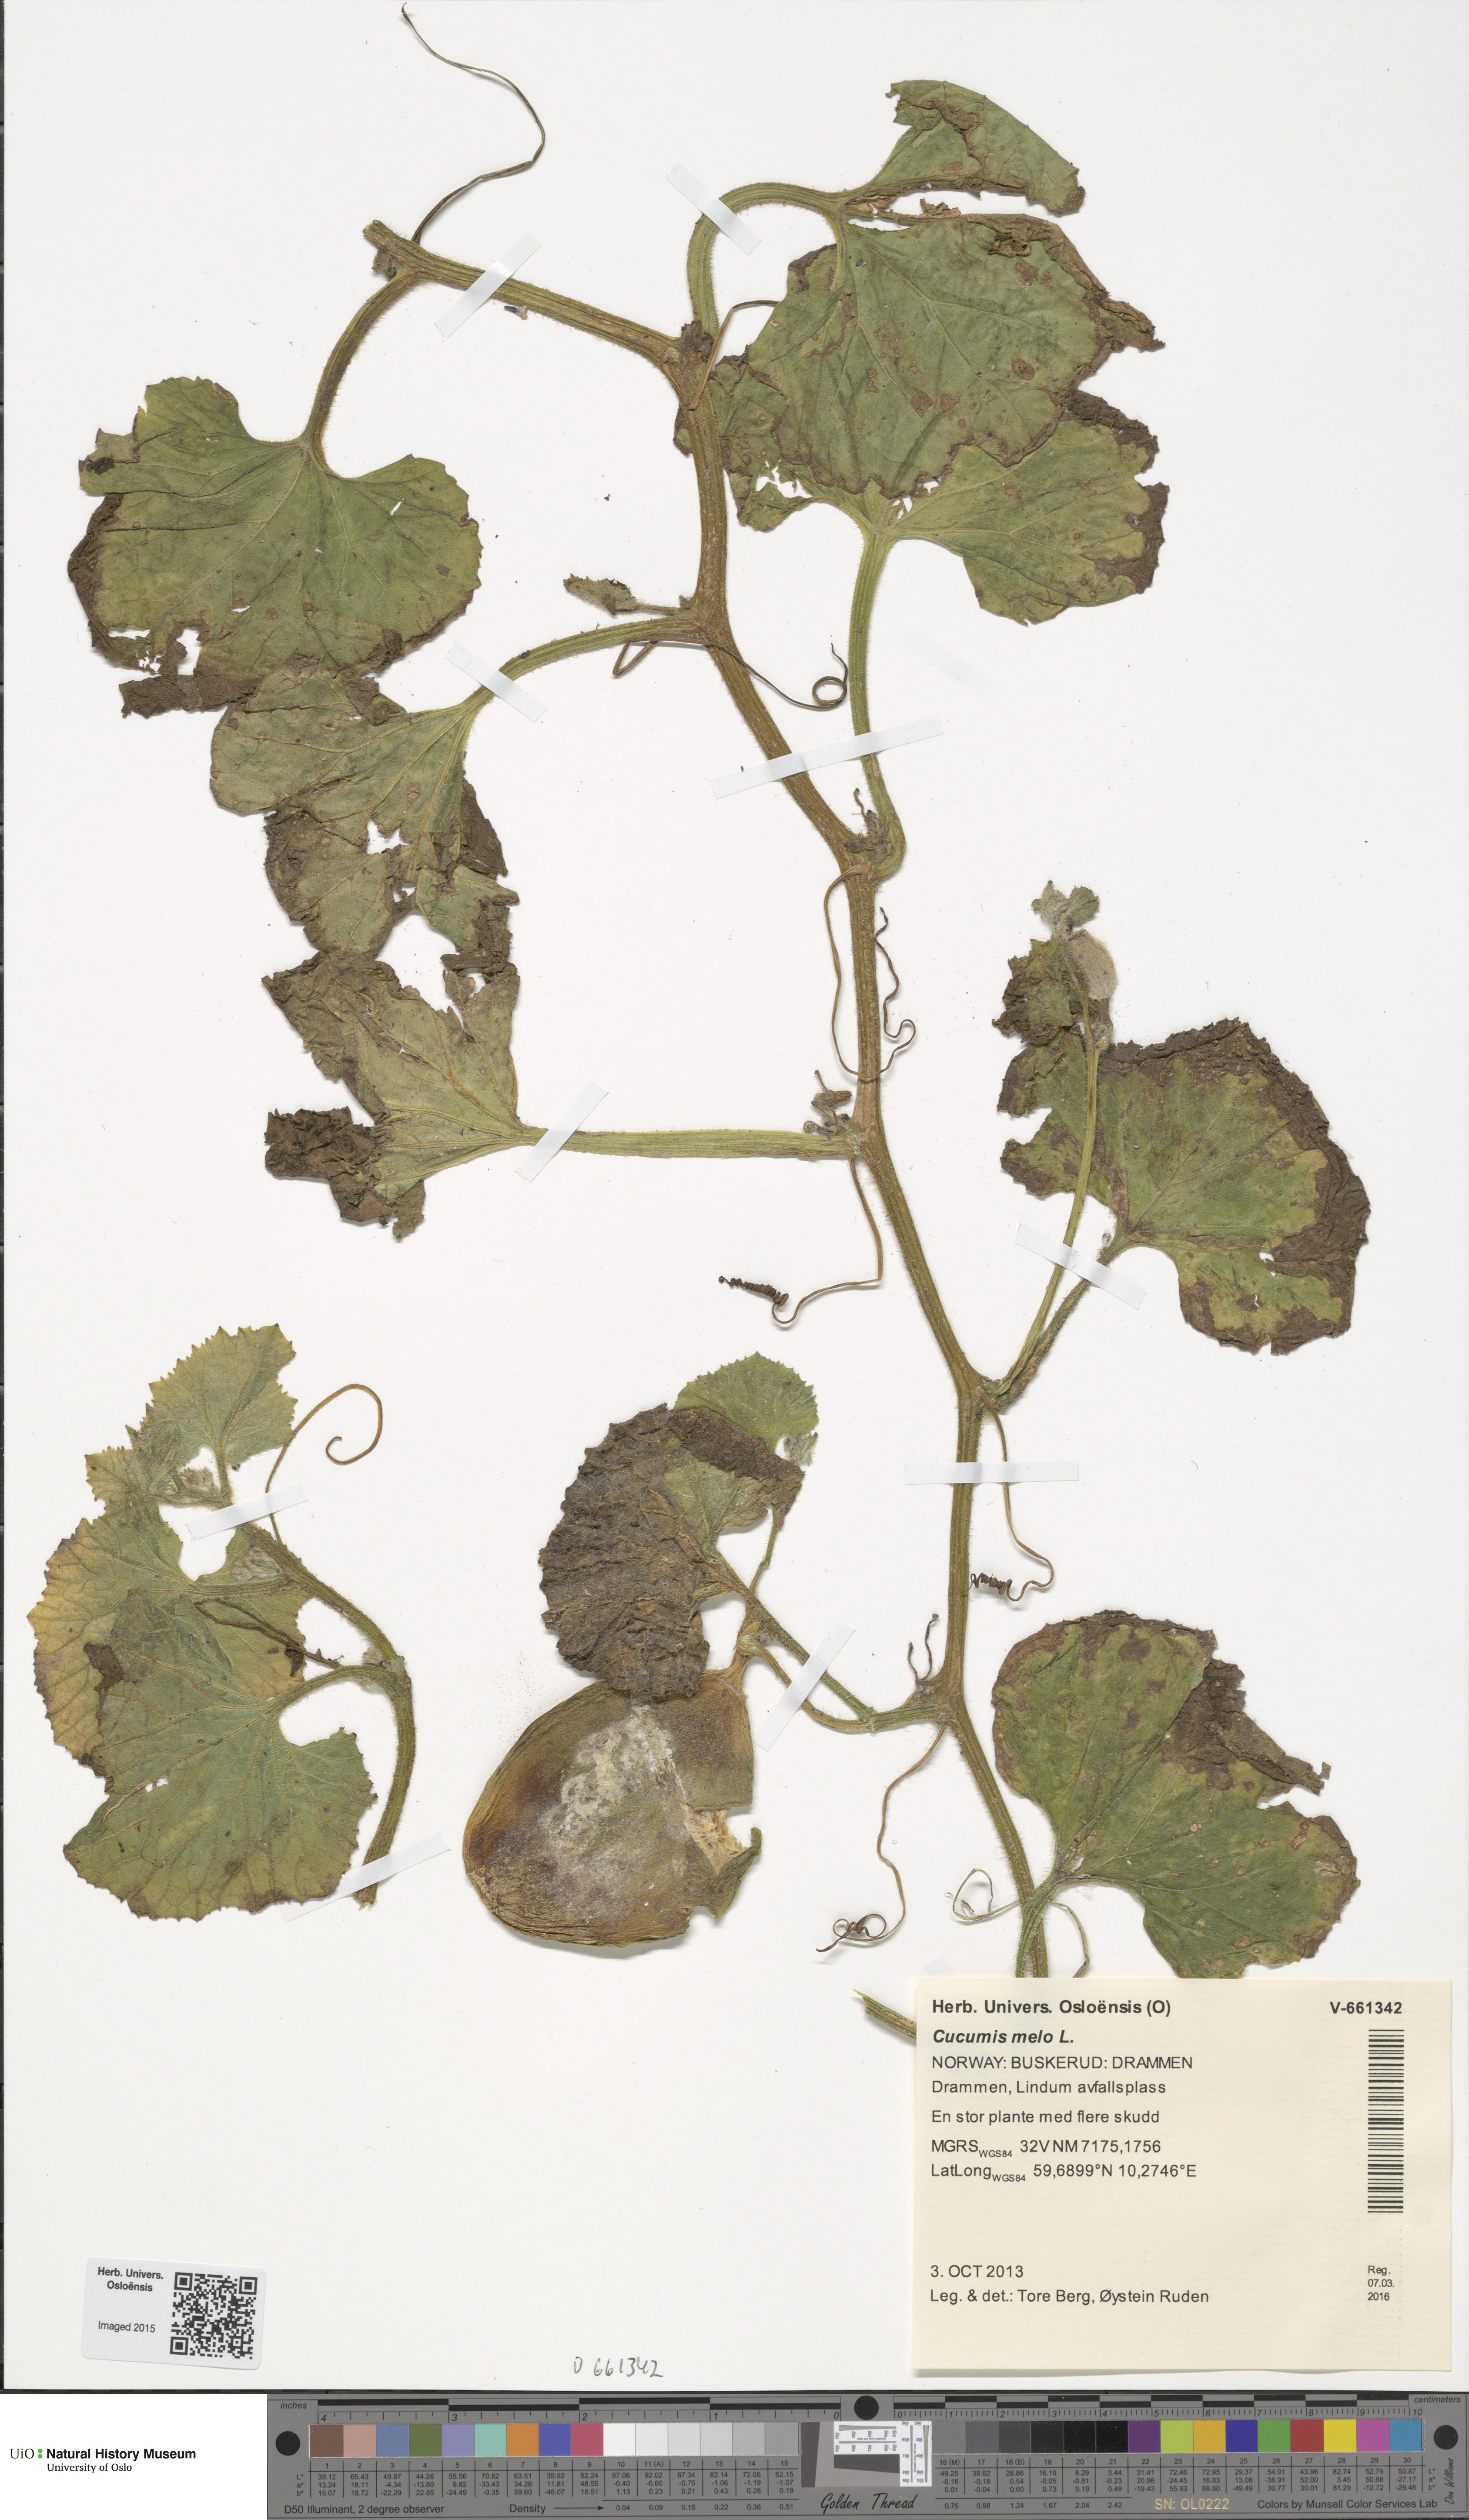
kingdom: Plantae
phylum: Tracheophyta
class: Magnoliopsida
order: Cucurbitales
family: Cucurbitaceae
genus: Cucumis
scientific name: Cucumis melo
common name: Melon
